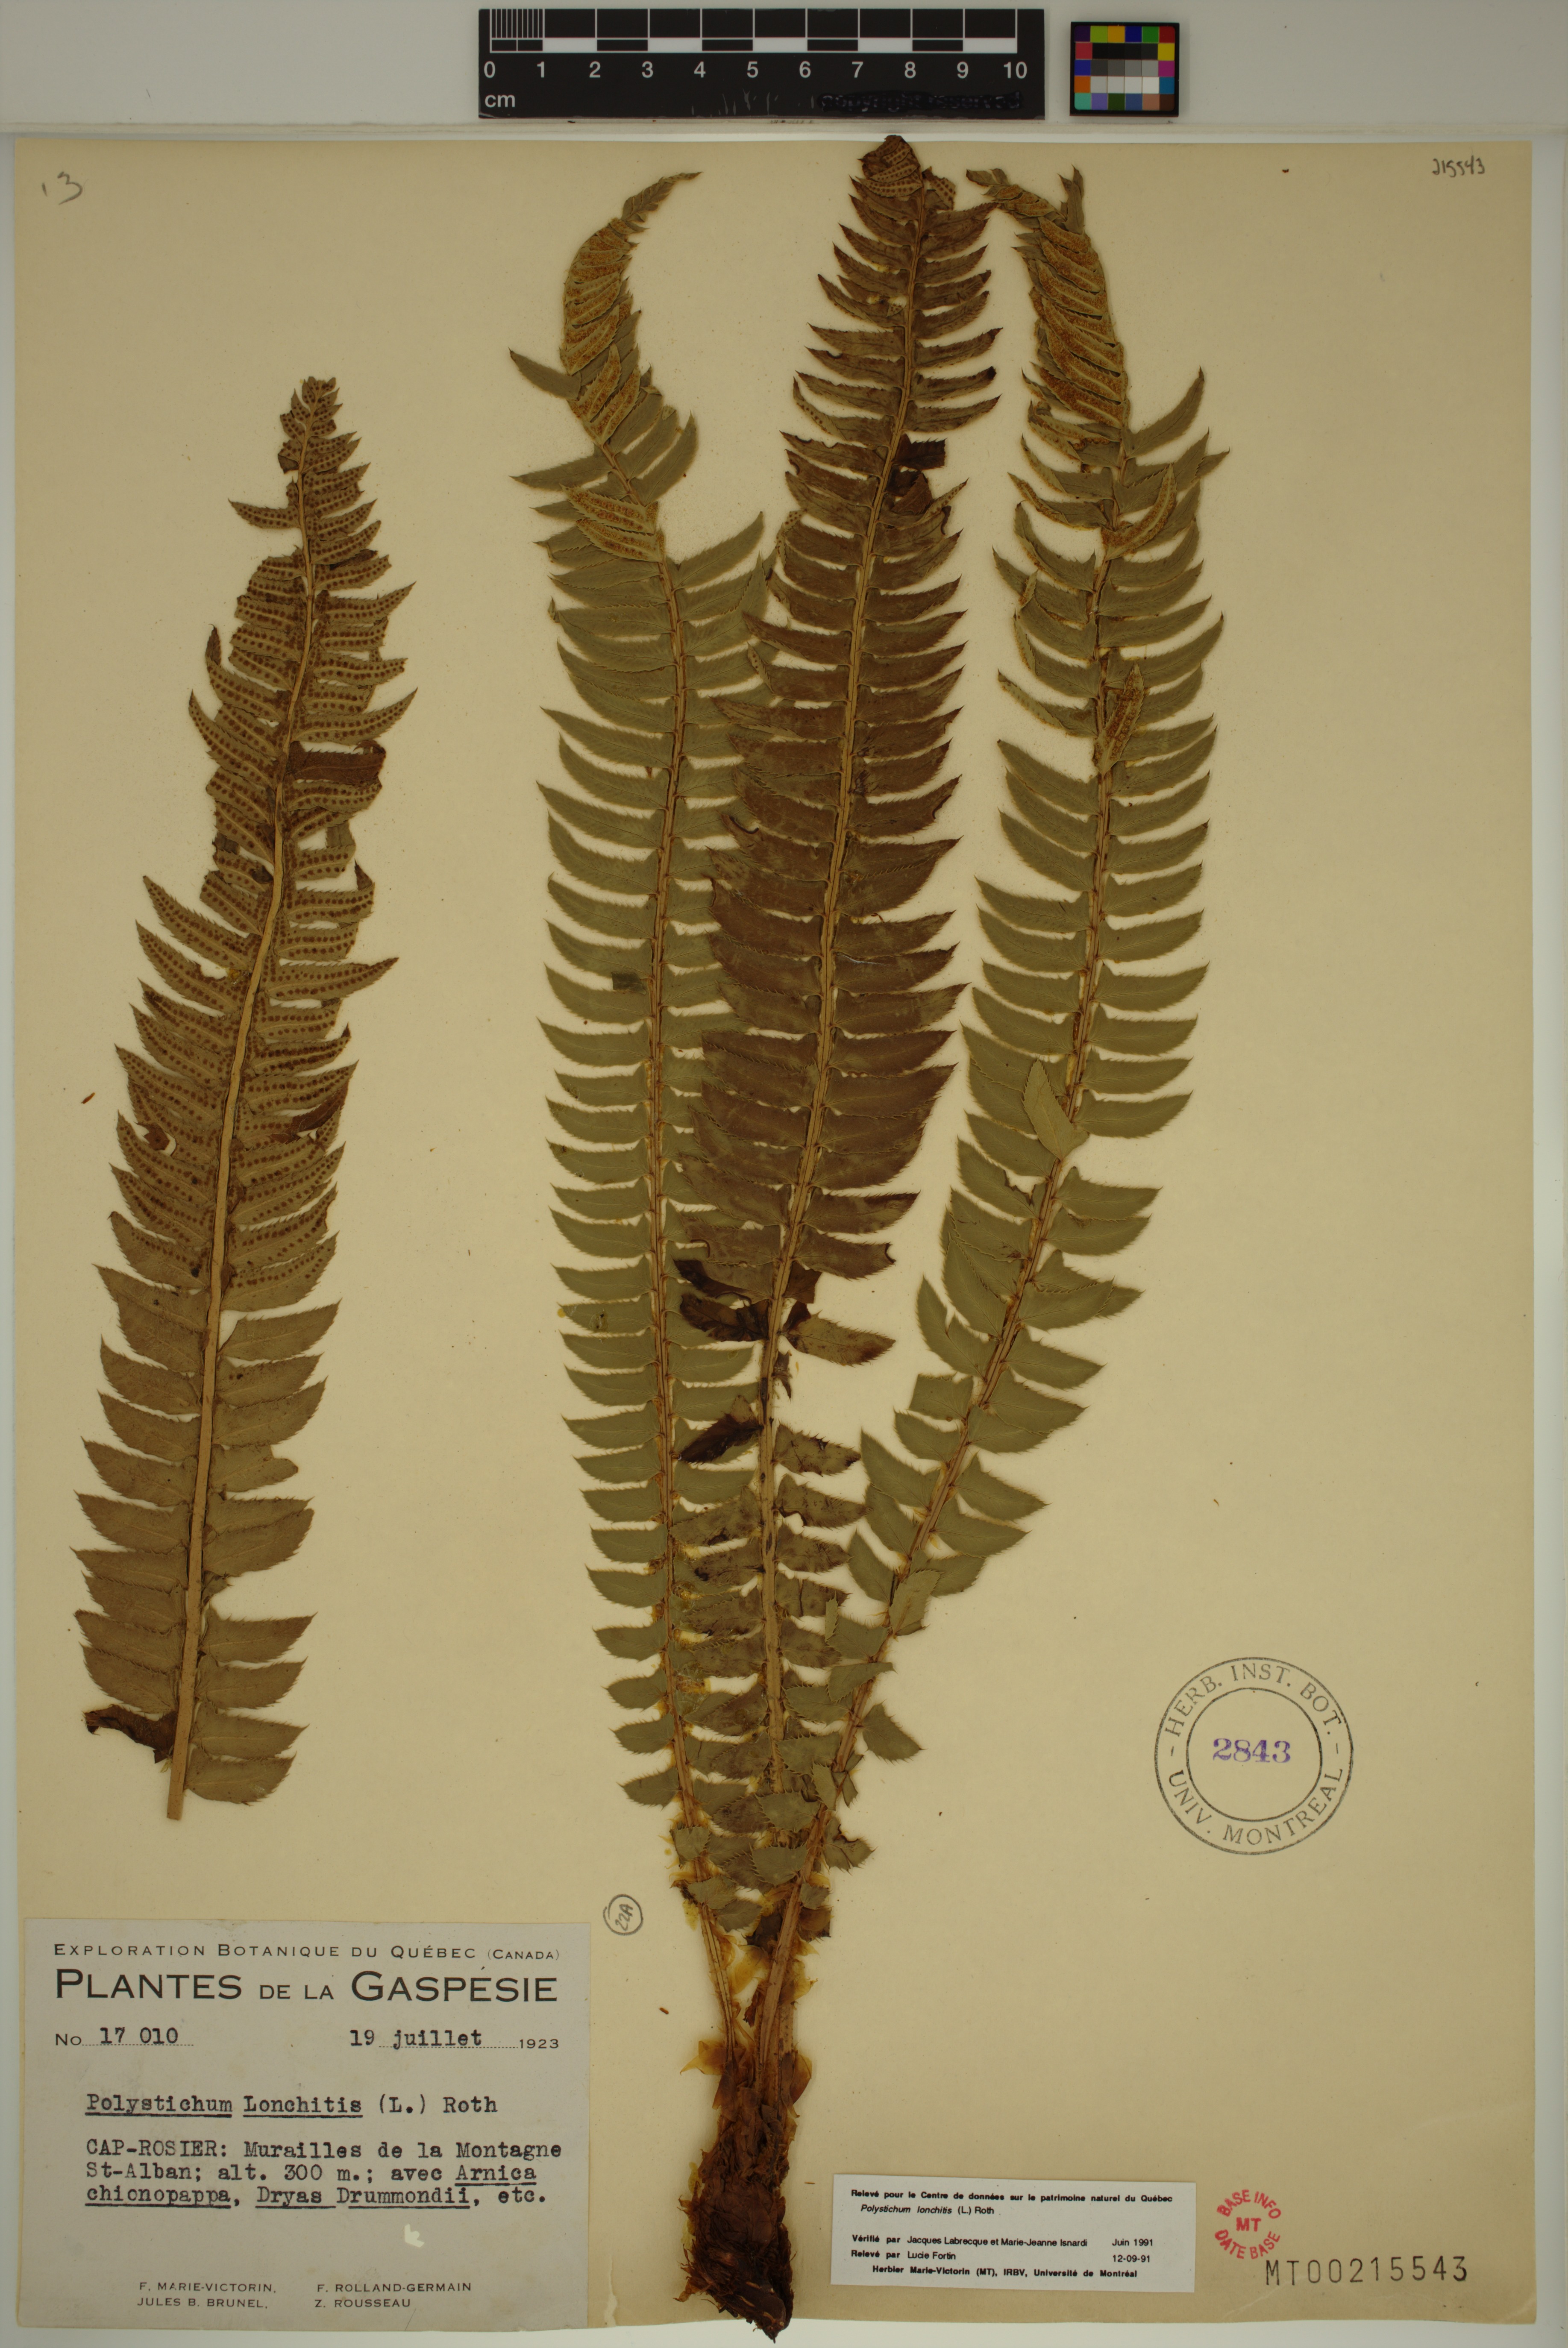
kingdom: Plantae
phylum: Tracheophyta
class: Polypodiopsida
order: Polypodiales
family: Dryopteridaceae
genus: Polystichum
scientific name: Polystichum lonchitis
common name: Holly fern
